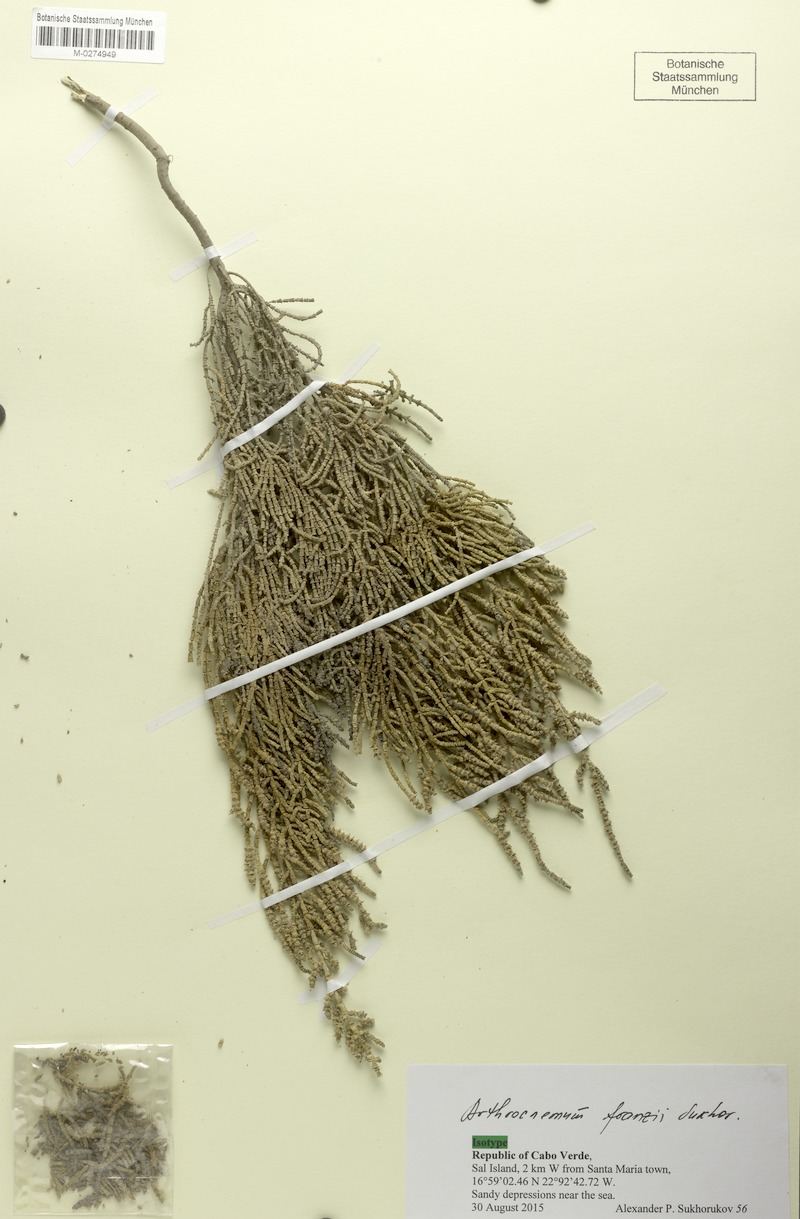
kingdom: Plantae
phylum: Tracheophyta
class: Magnoliopsida
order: Caryophyllales
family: Amaranthaceae
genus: Arthrocaulon
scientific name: Arthrocaulon franzii
